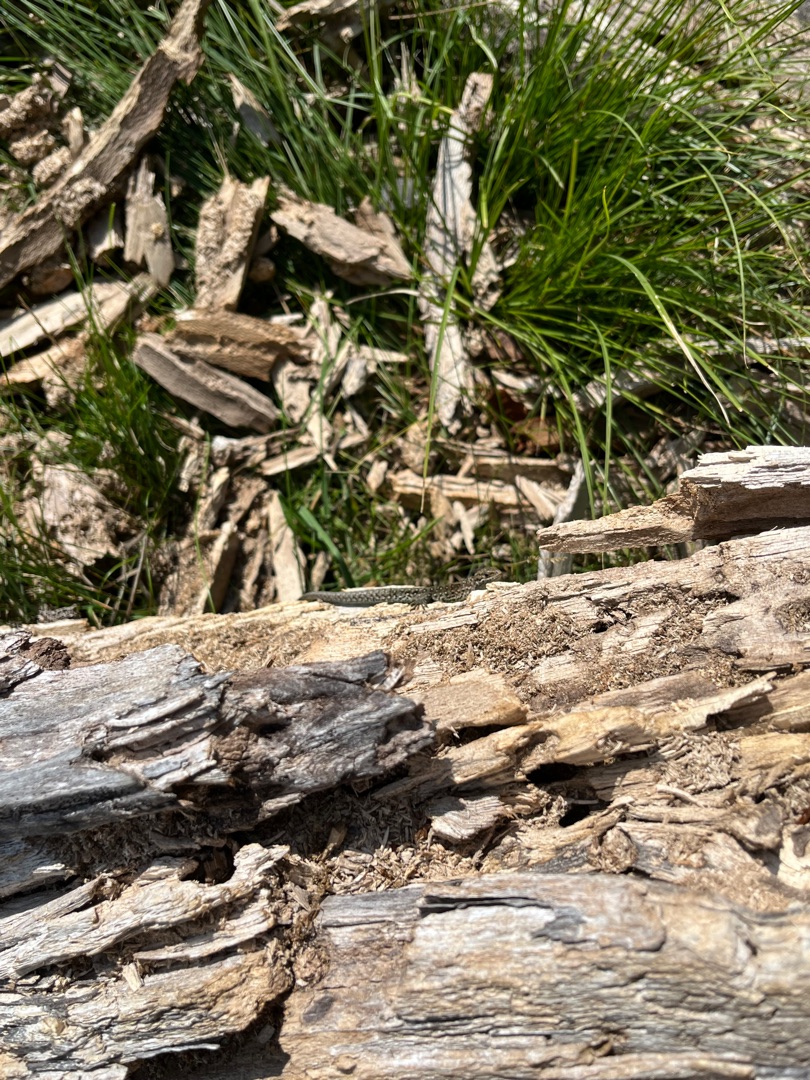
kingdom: Animalia
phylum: Chordata
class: Squamata
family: Lacertidae
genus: Lacerta
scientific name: Lacerta agilis
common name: Markfirben
